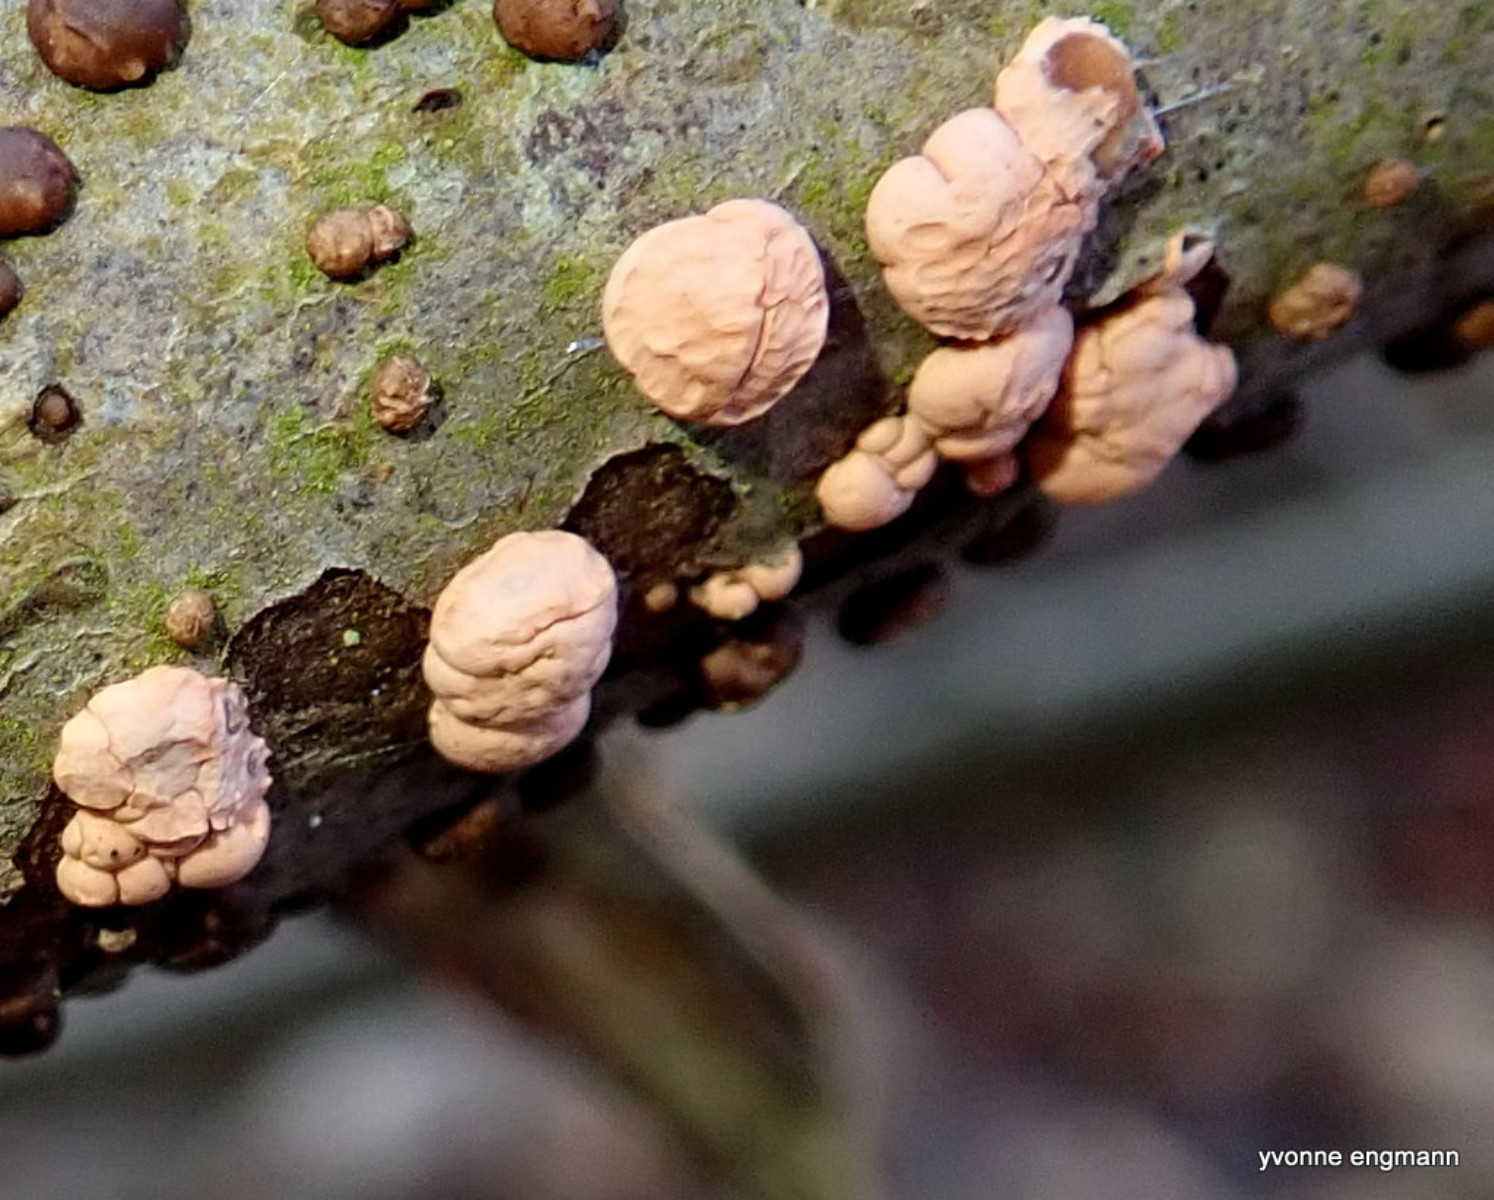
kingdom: Fungi
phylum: Ascomycota
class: Sordariomycetes
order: Hypocreales
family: Nectriaceae
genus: Nectria
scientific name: Nectria cinnabarina
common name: almindelig cinnobersvamp
